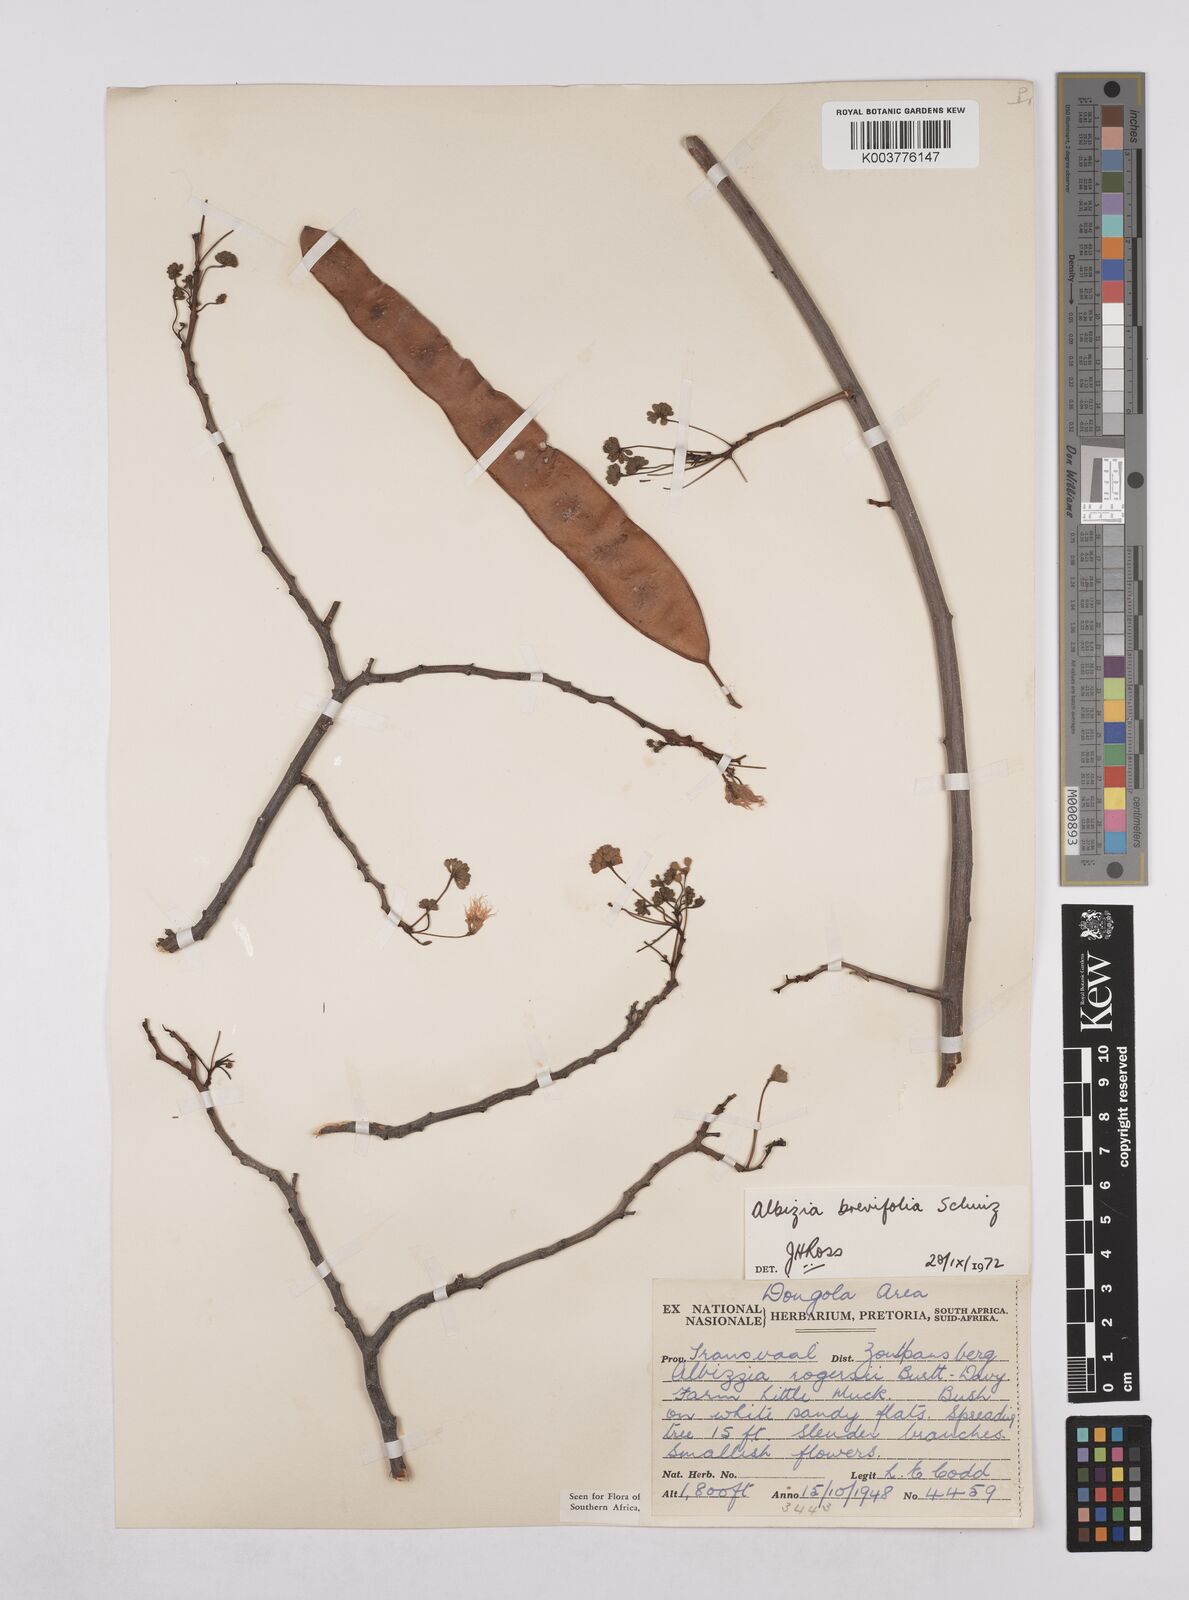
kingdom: Plantae
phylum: Tracheophyta
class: Magnoliopsida
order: Fabales
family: Fabaceae
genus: Albizia
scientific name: Albizia brevifolia
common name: Rock false-thorn
